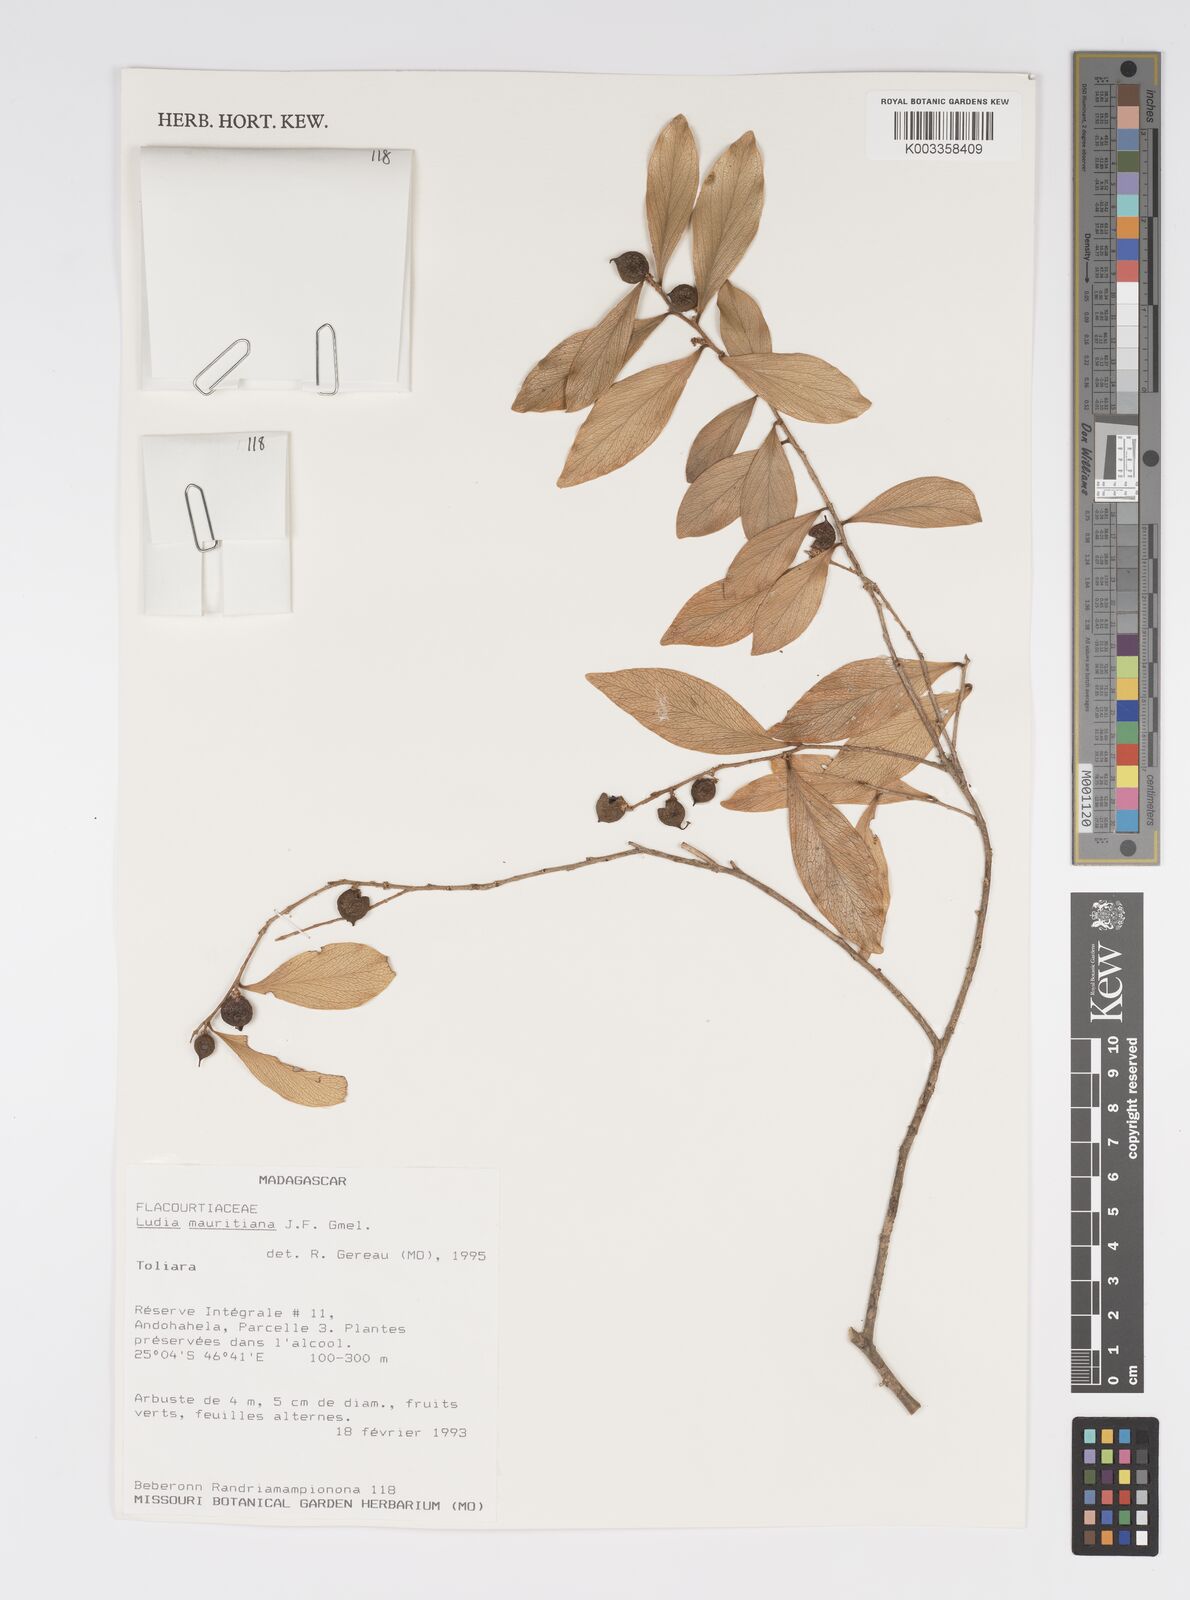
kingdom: Plantae
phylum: Tracheophyta
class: Magnoliopsida
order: Malpighiales
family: Salicaceae
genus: Ludia
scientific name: Ludia mauritiana
